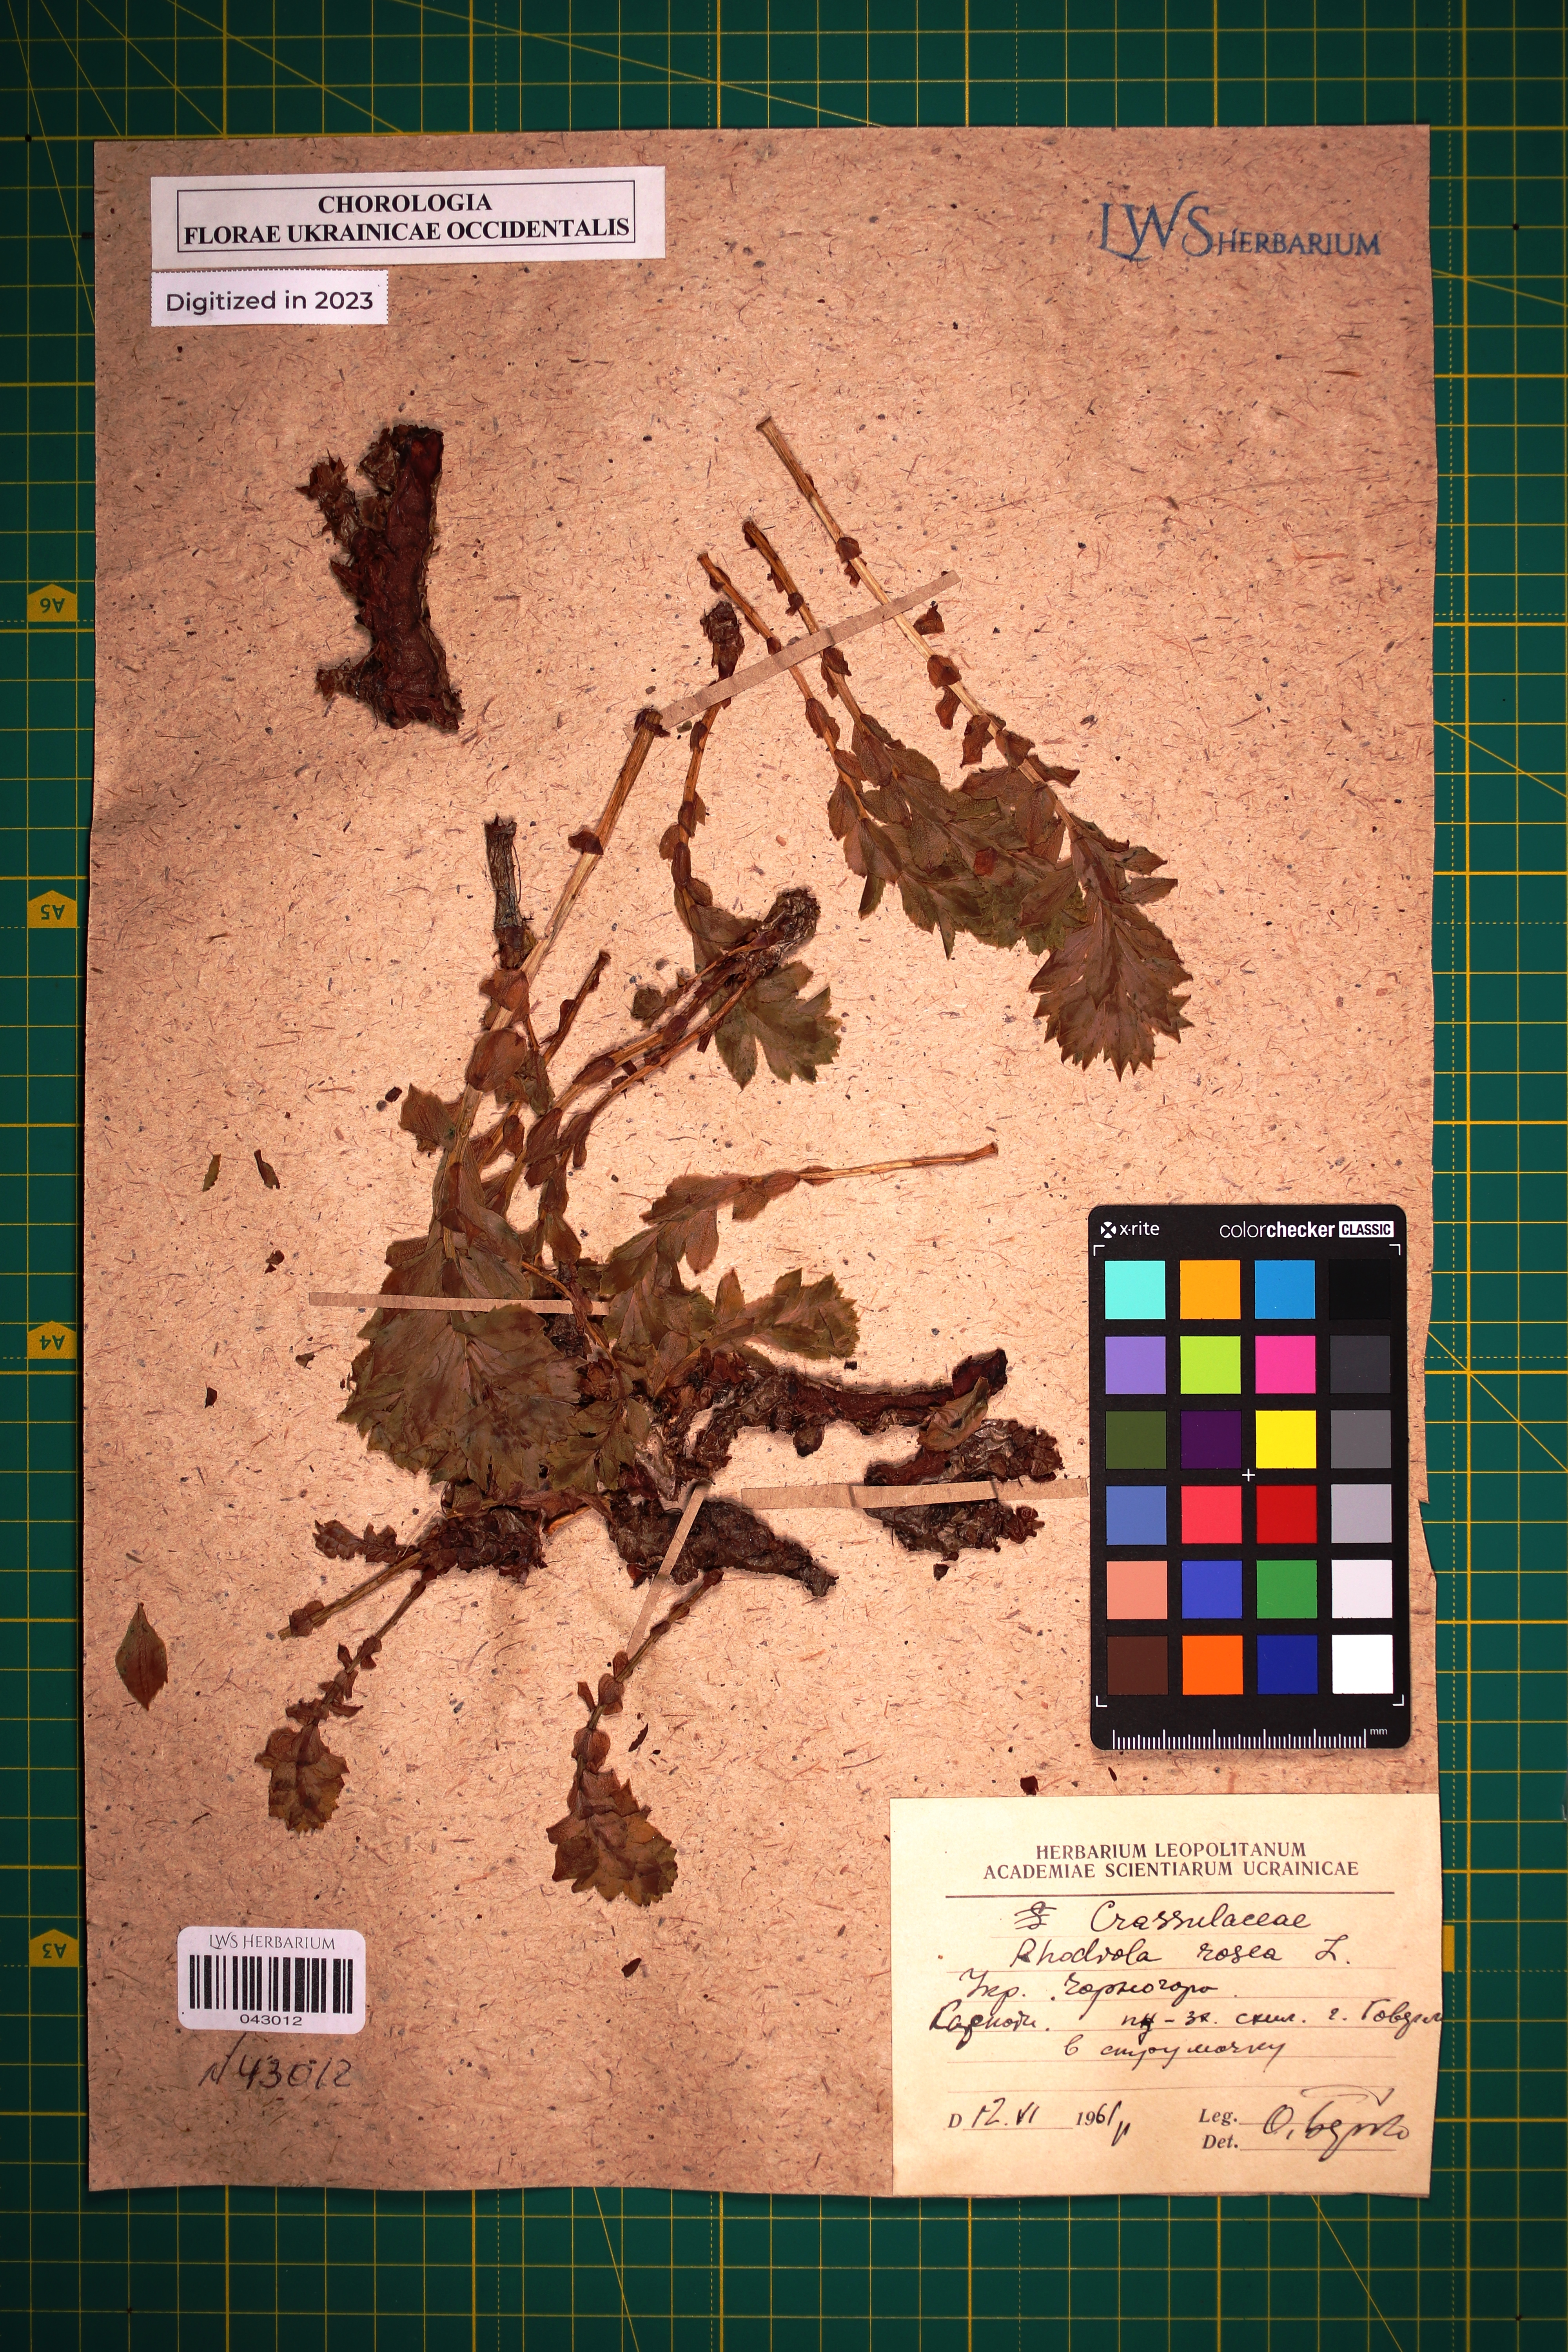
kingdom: Plantae
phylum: Tracheophyta
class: Magnoliopsida
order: Saxifragales
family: Crassulaceae
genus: Rhodiola
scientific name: Rhodiola rosea
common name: Roseroot
